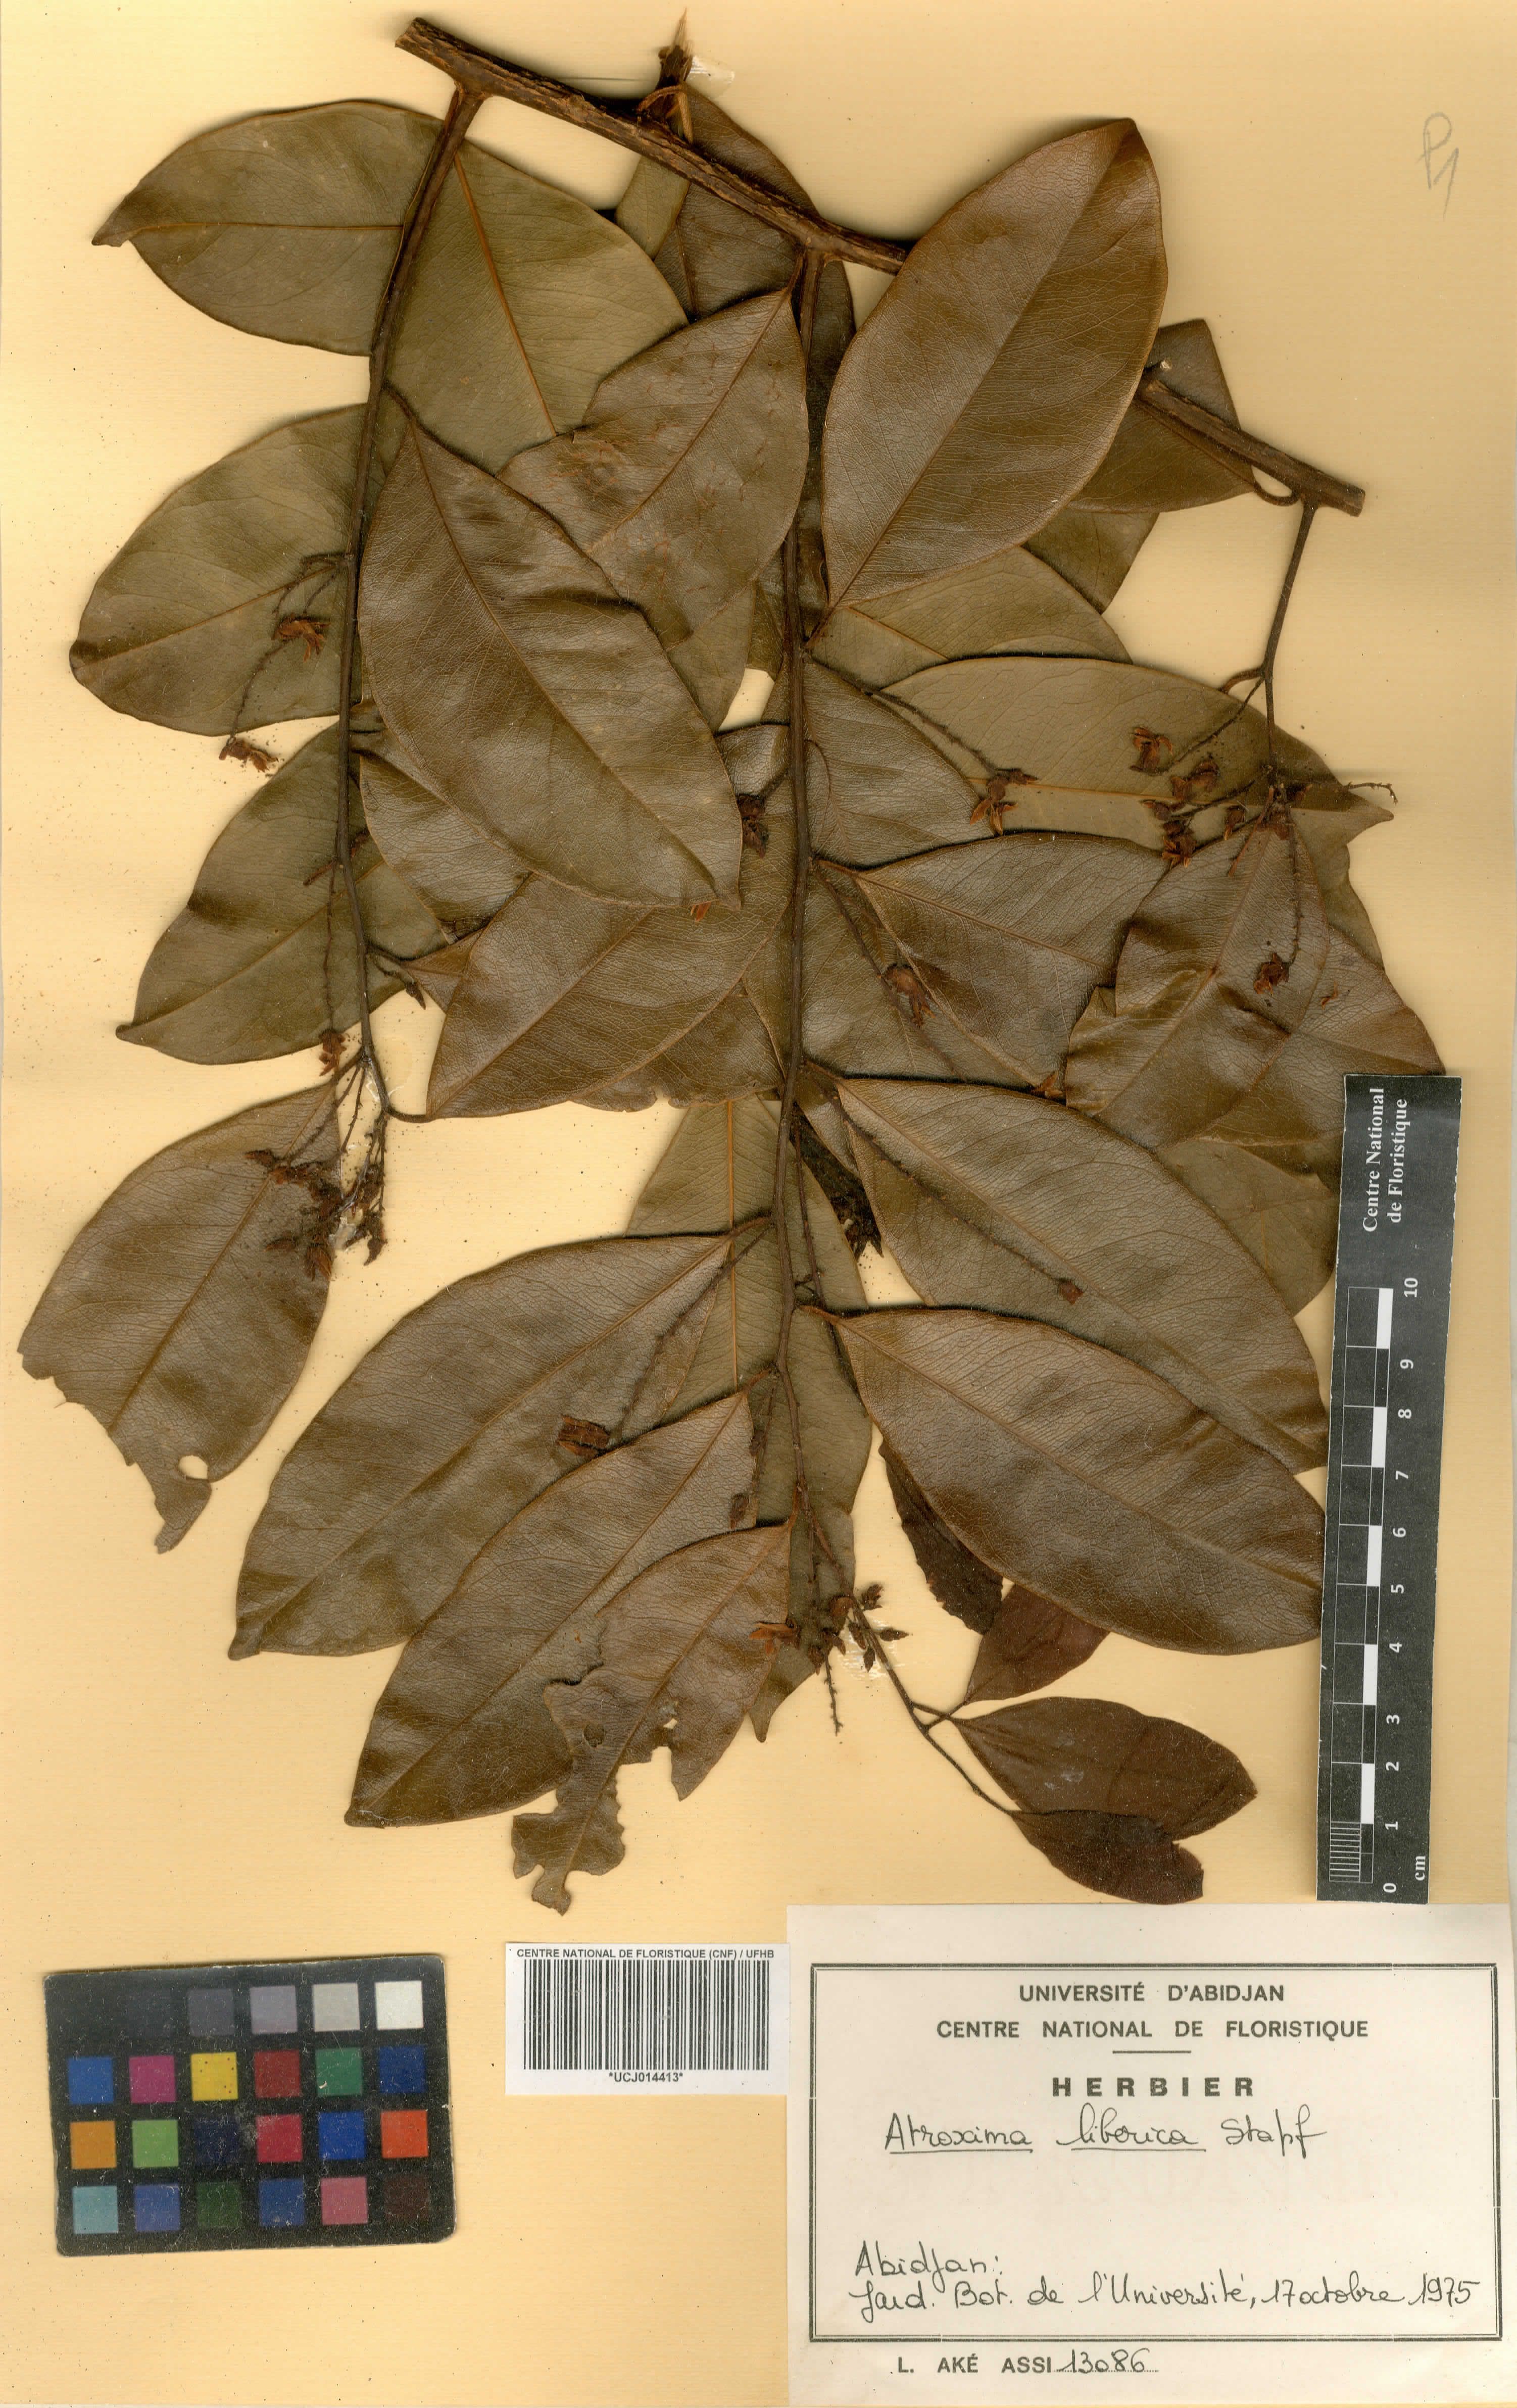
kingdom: Plantae
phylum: Tracheophyta
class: Magnoliopsida
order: Fabales
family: Polygalaceae
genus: Atroxima
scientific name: Atroxima liberica
